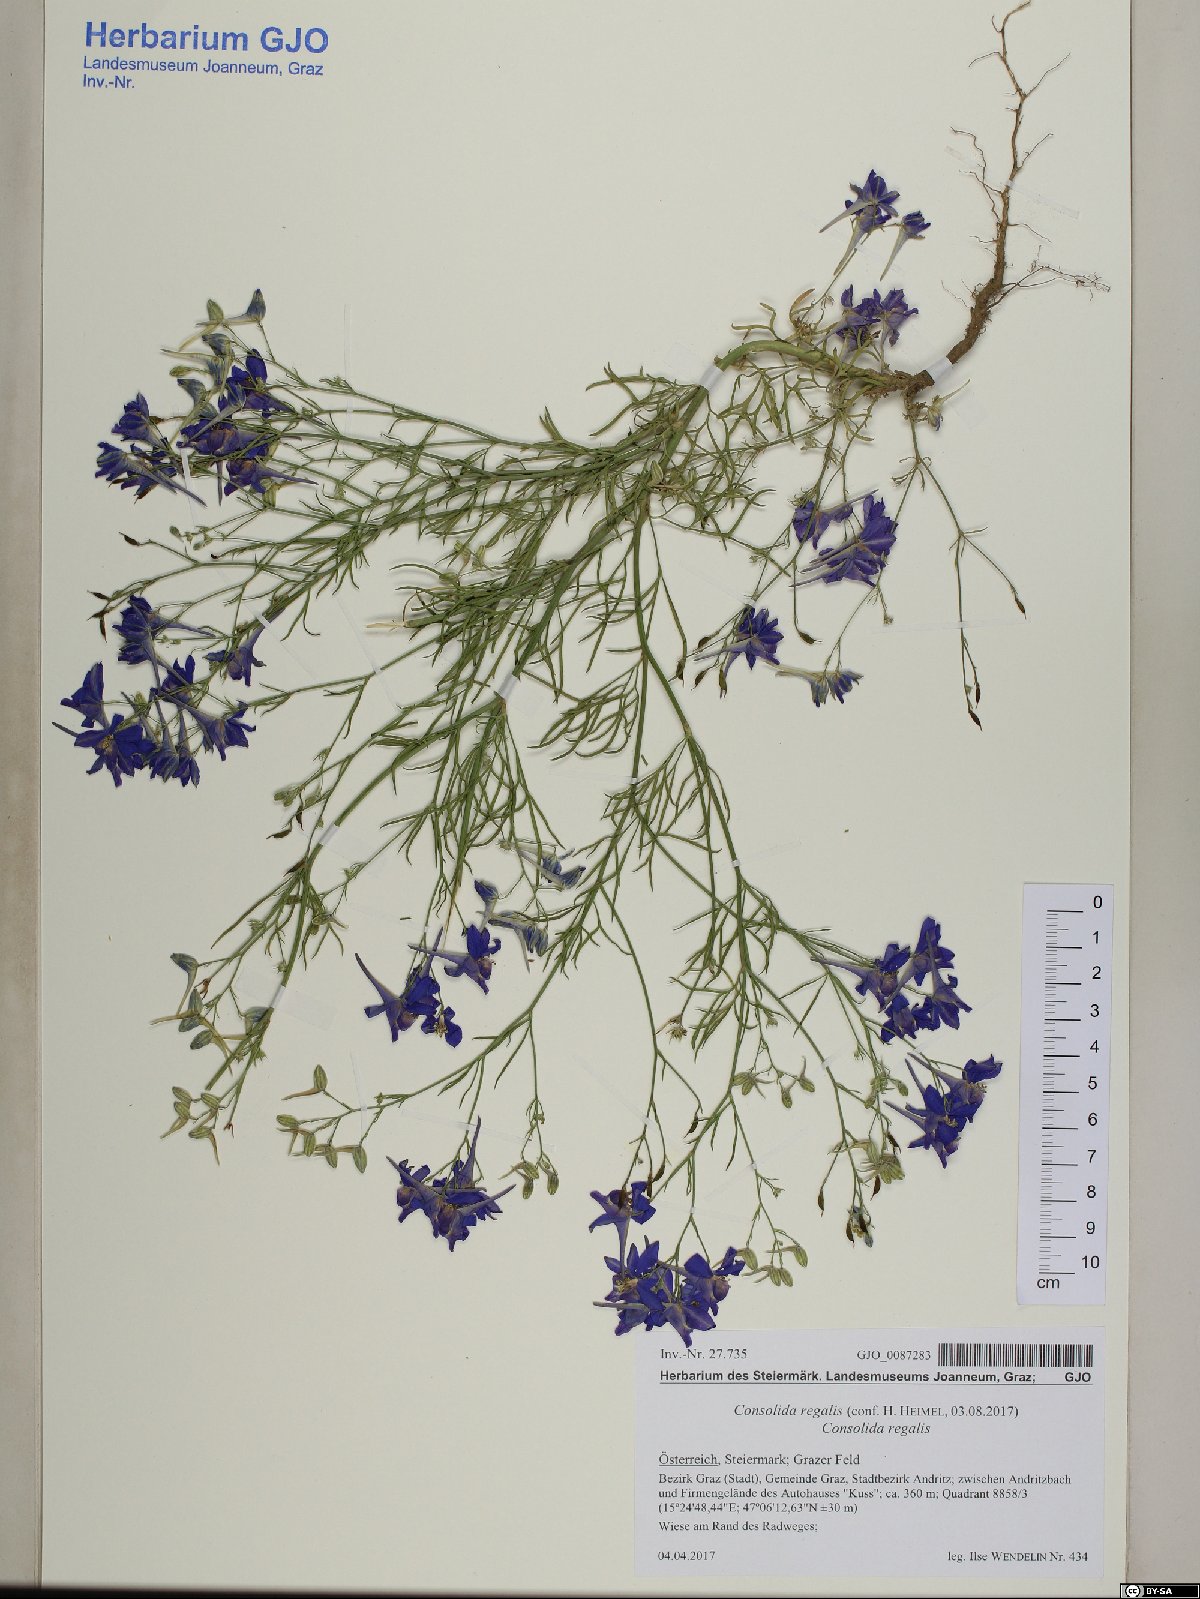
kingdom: Plantae
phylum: Tracheophyta
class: Magnoliopsida
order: Ranunculales
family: Ranunculaceae
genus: Delphinium
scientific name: Delphinium consolida
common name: Branching larkspur
